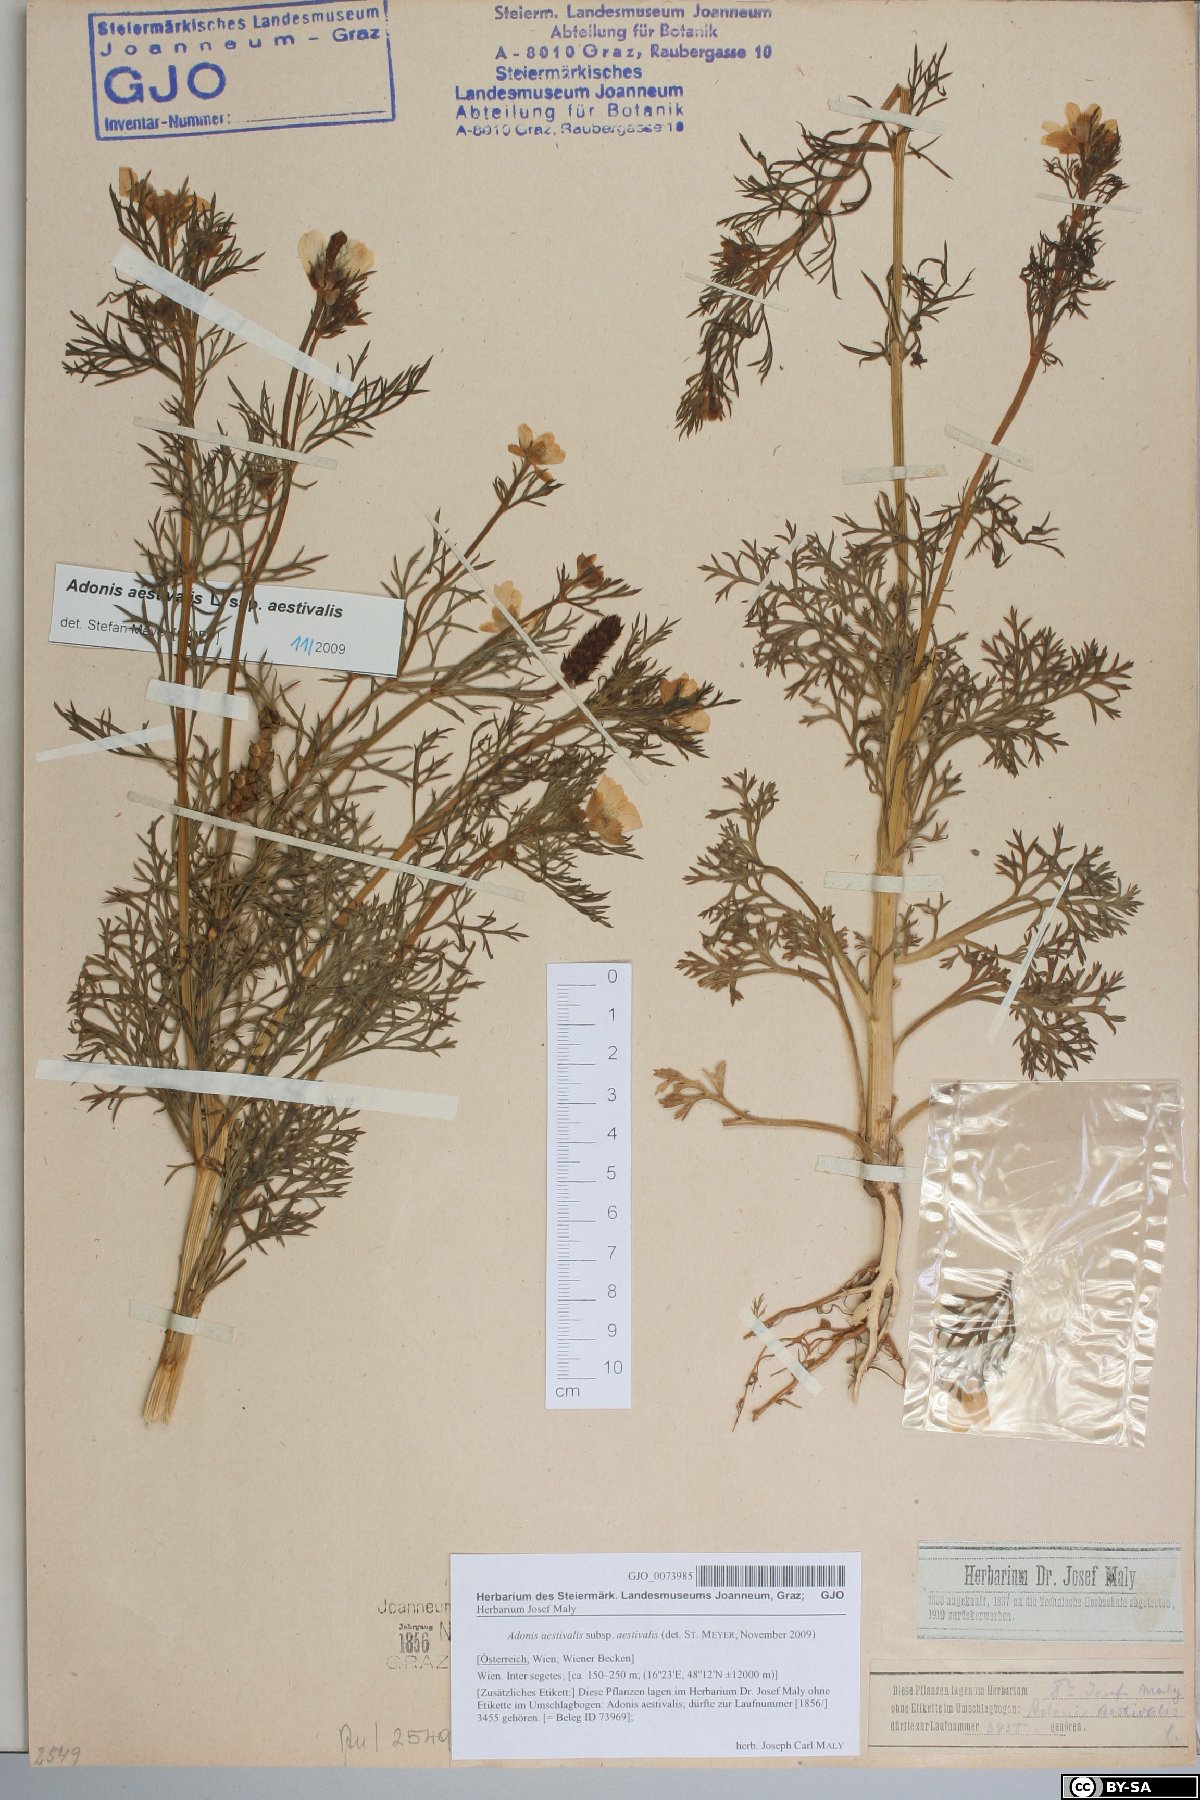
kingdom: Plantae
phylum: Tracheophyta
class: Magnoliopsida
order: Ranunculales
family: Ranunculaceae
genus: Adonis
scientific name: Adonis aestivalis
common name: Summer pheasant's-eye
